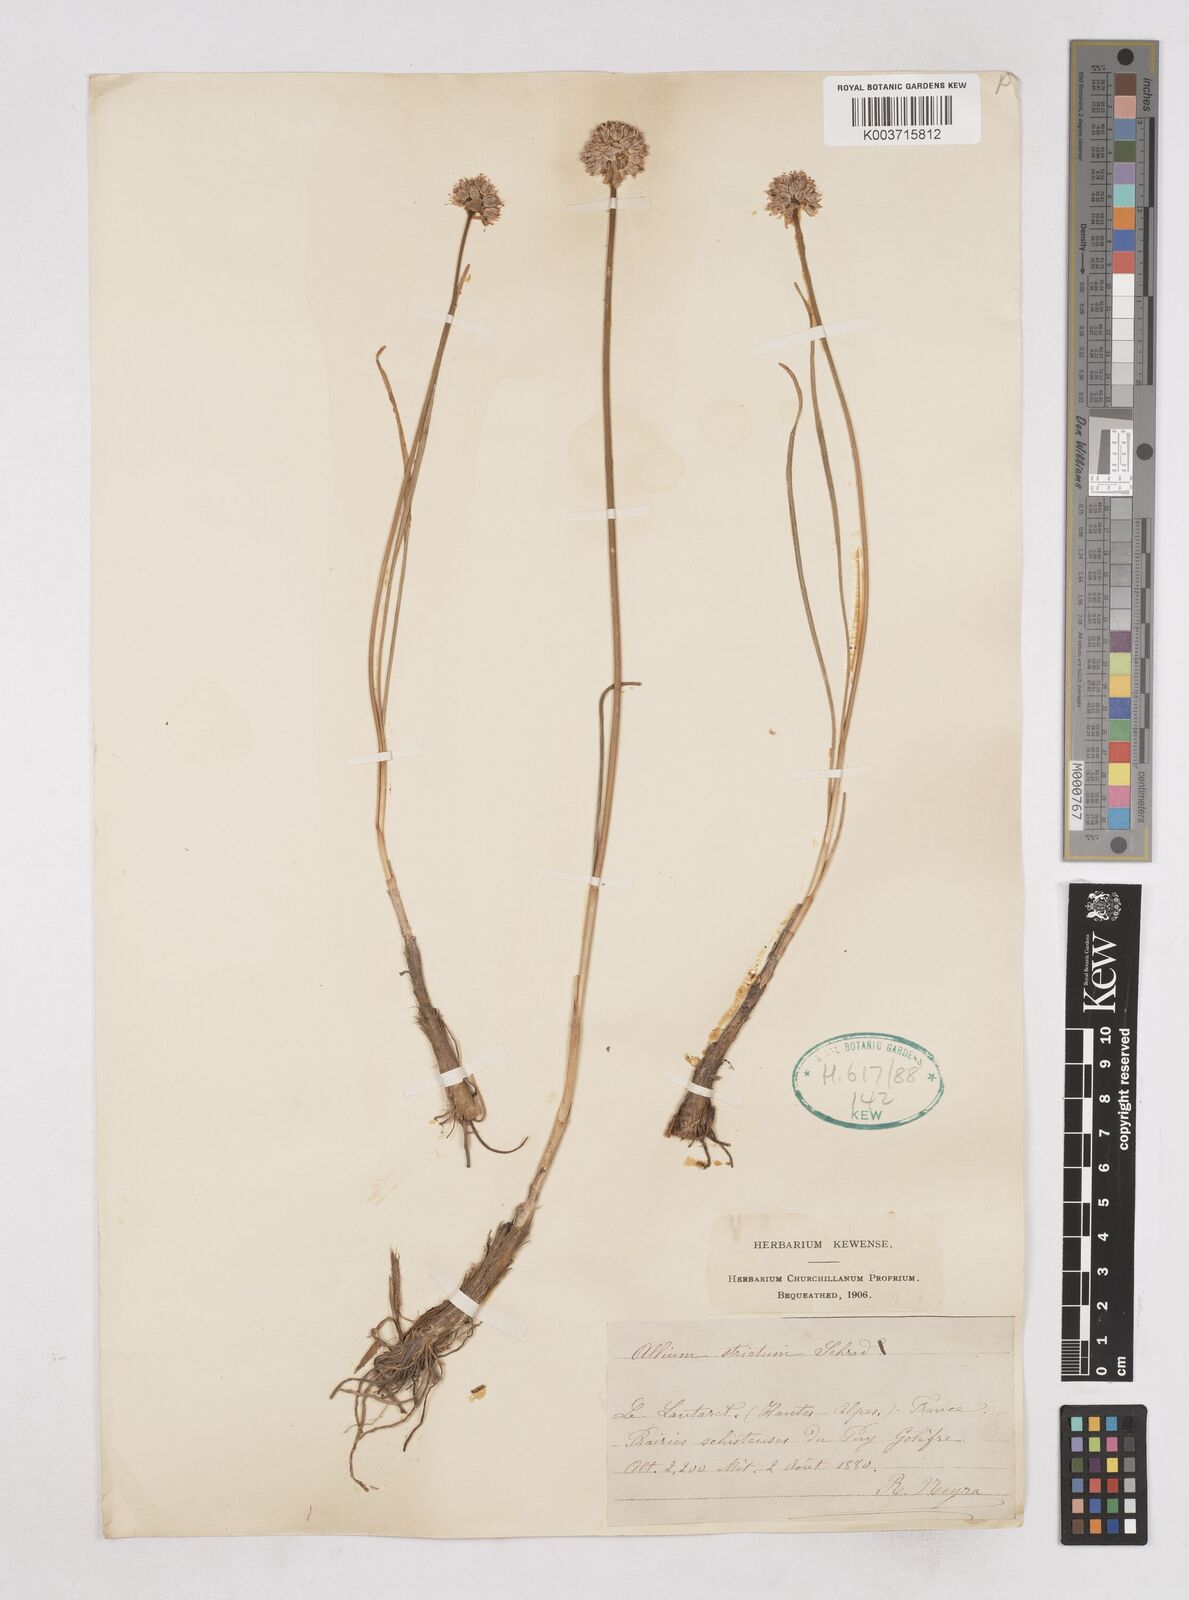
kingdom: Plantae
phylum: Tracheophyta
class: Liliopsida
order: Asparagales
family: Amaryllidaceae
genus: Allium
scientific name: Allium strictum
